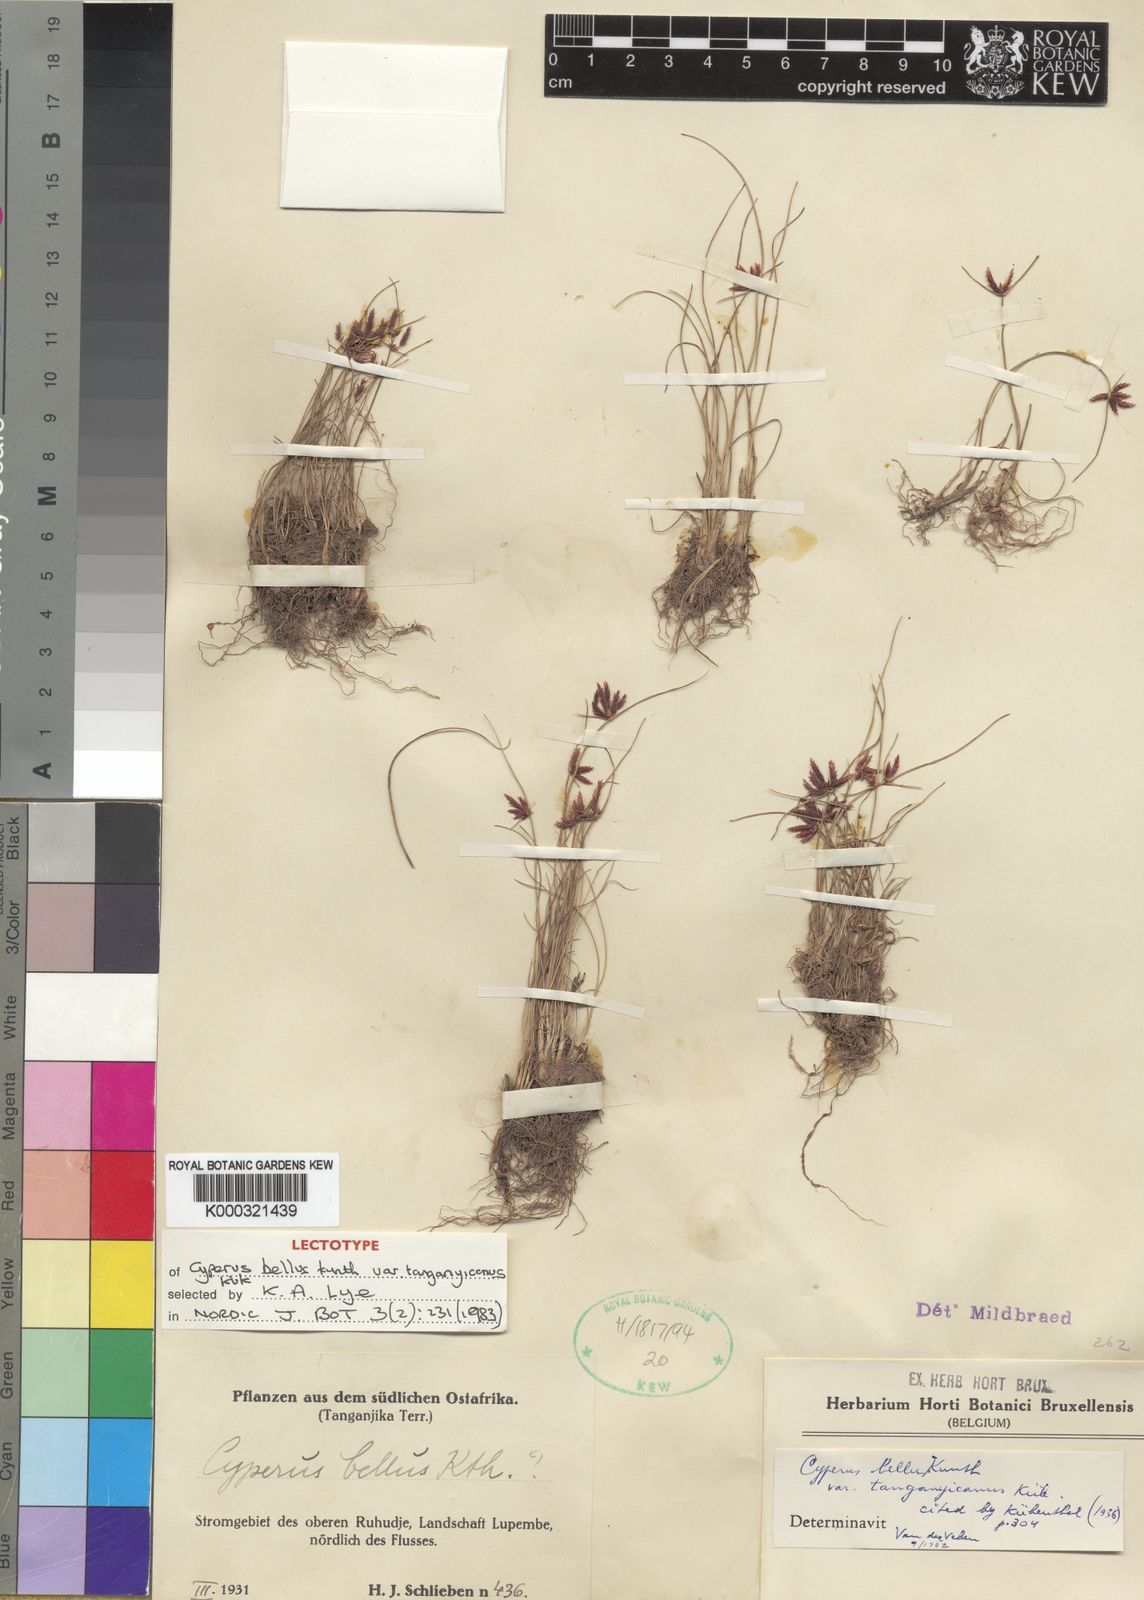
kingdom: Plantae
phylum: Tracheophyta
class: Liliopsida
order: Poales
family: Cyperaceae
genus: Cyperus
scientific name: Cyperus bellus
